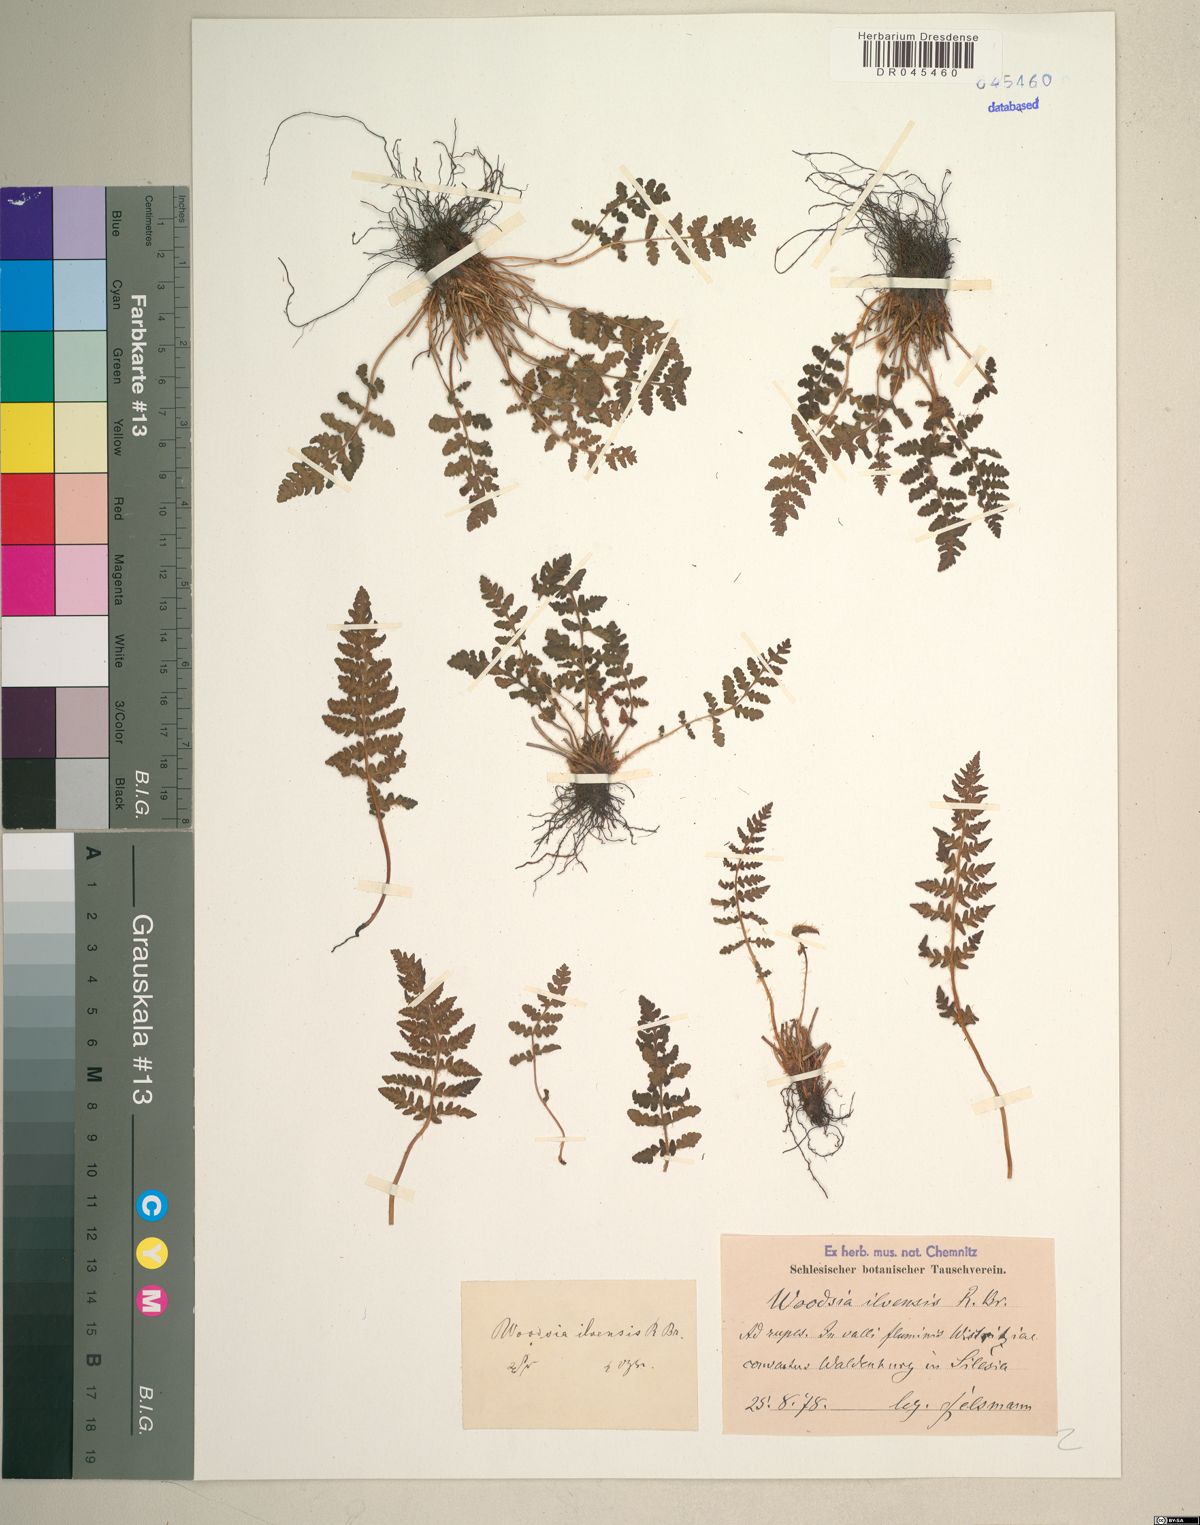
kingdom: Plantae
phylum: Tracheophyta
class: Polypodiopsida
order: Polypodiales
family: Woodsiaceae
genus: Woodsia
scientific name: Woodsia ilvensis
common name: Fragrant woodsia
